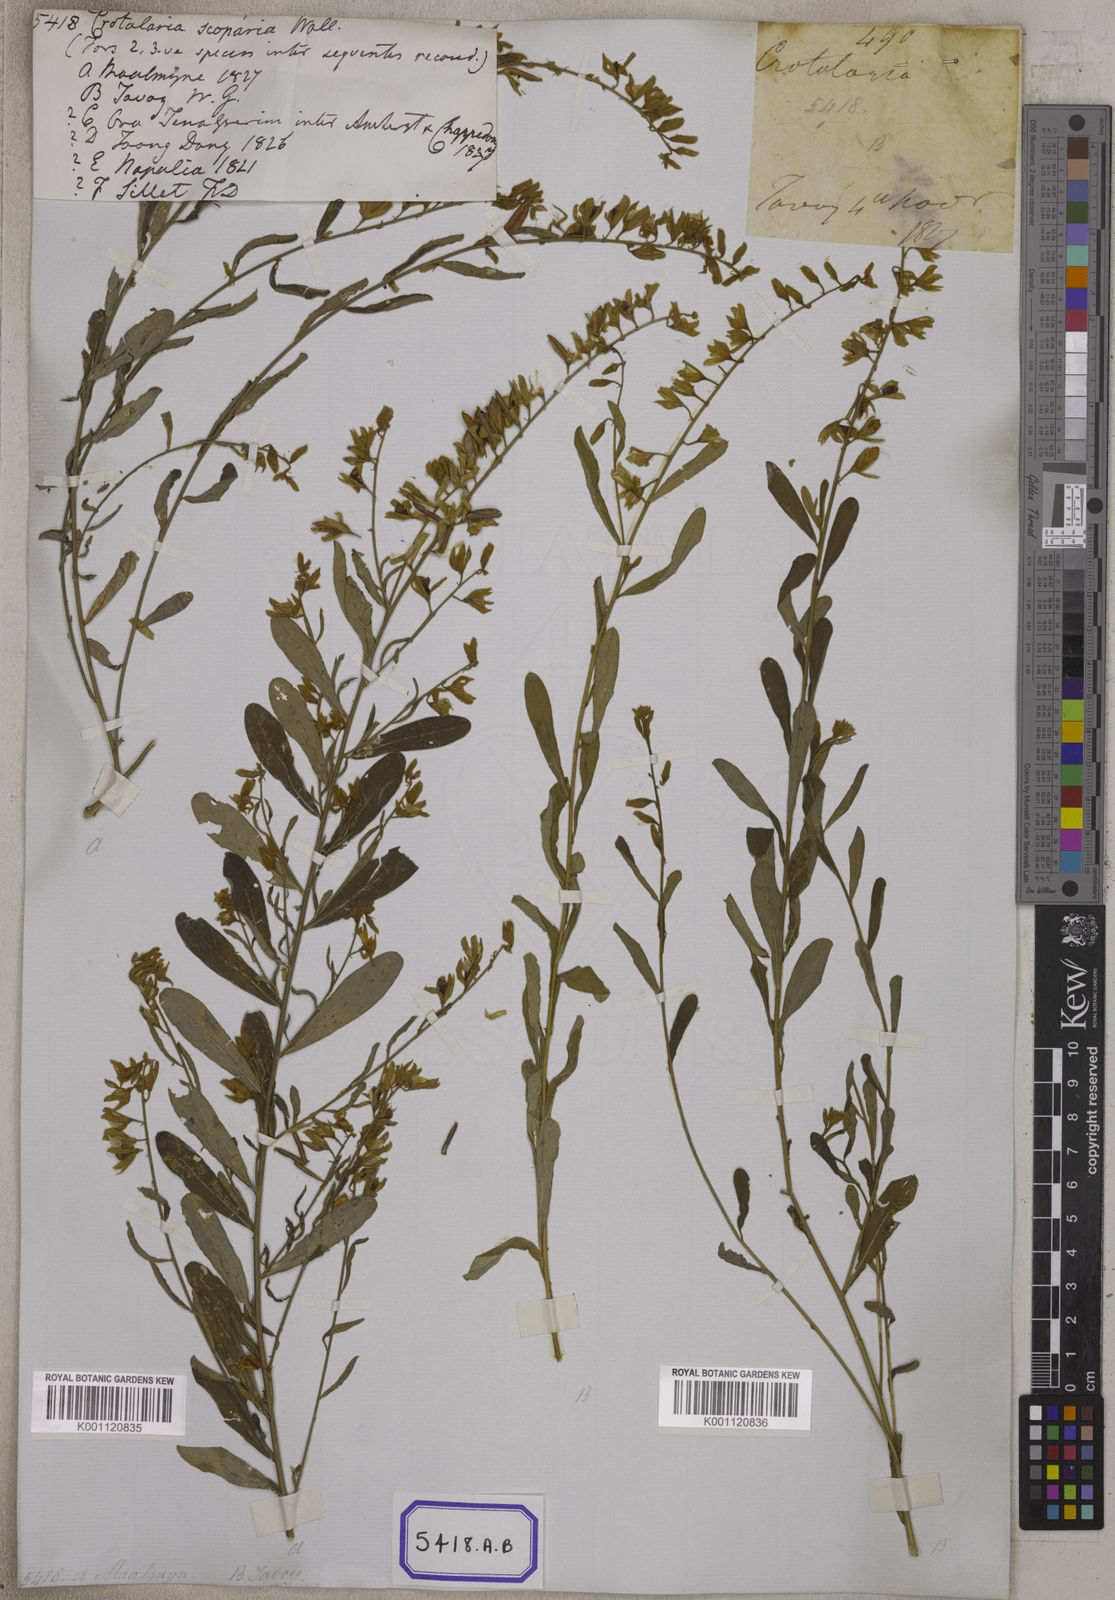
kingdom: Plantae
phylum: Tracheophyta
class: Magnoliopsida
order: Fabales
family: Fabaceae
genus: Crotalaria
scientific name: Crotalaria albida
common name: Taiwan crotalaria
